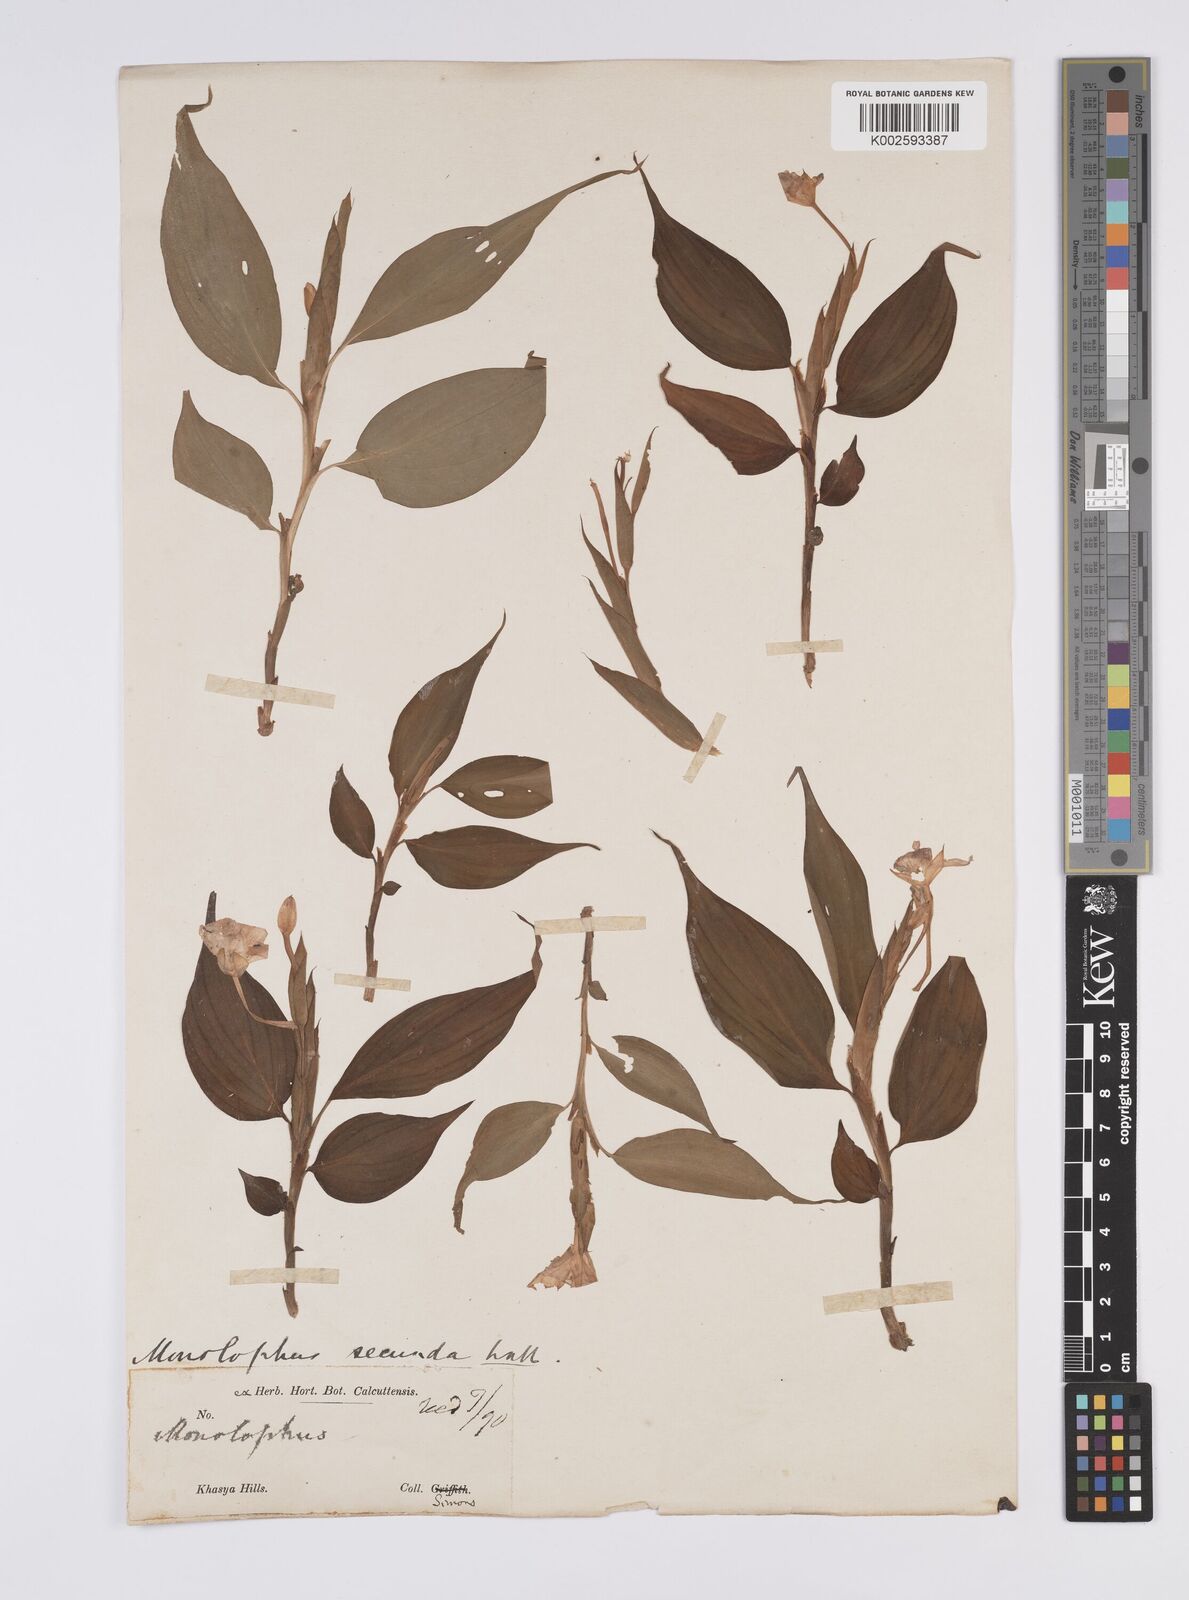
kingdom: Plantae
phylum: Tracheophyta
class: Liliopsida
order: Zingiberales
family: Zingiberaceae
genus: Caulokaempferia
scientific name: Caulokaempferia secunda
